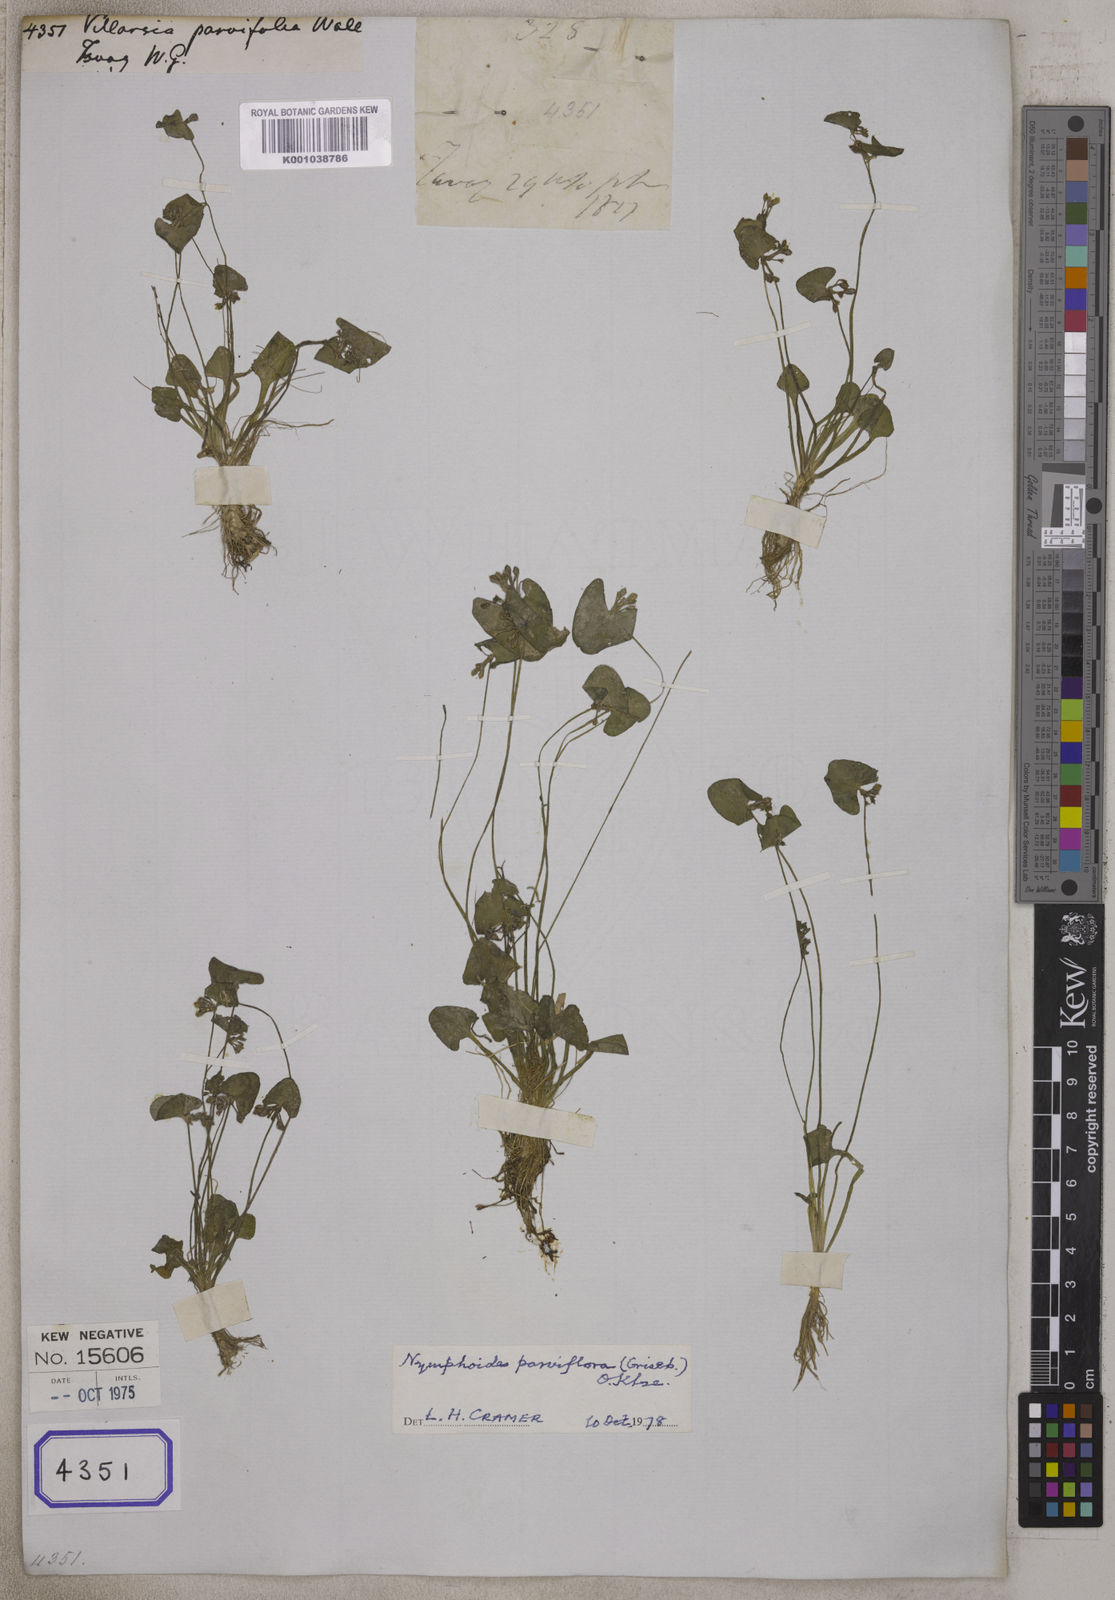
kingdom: Plantae
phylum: Tracheophyta
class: Magnoliopsida
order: Asterales
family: Menyanthaceae
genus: Nymphoides
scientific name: Nymphoides parvifolia
